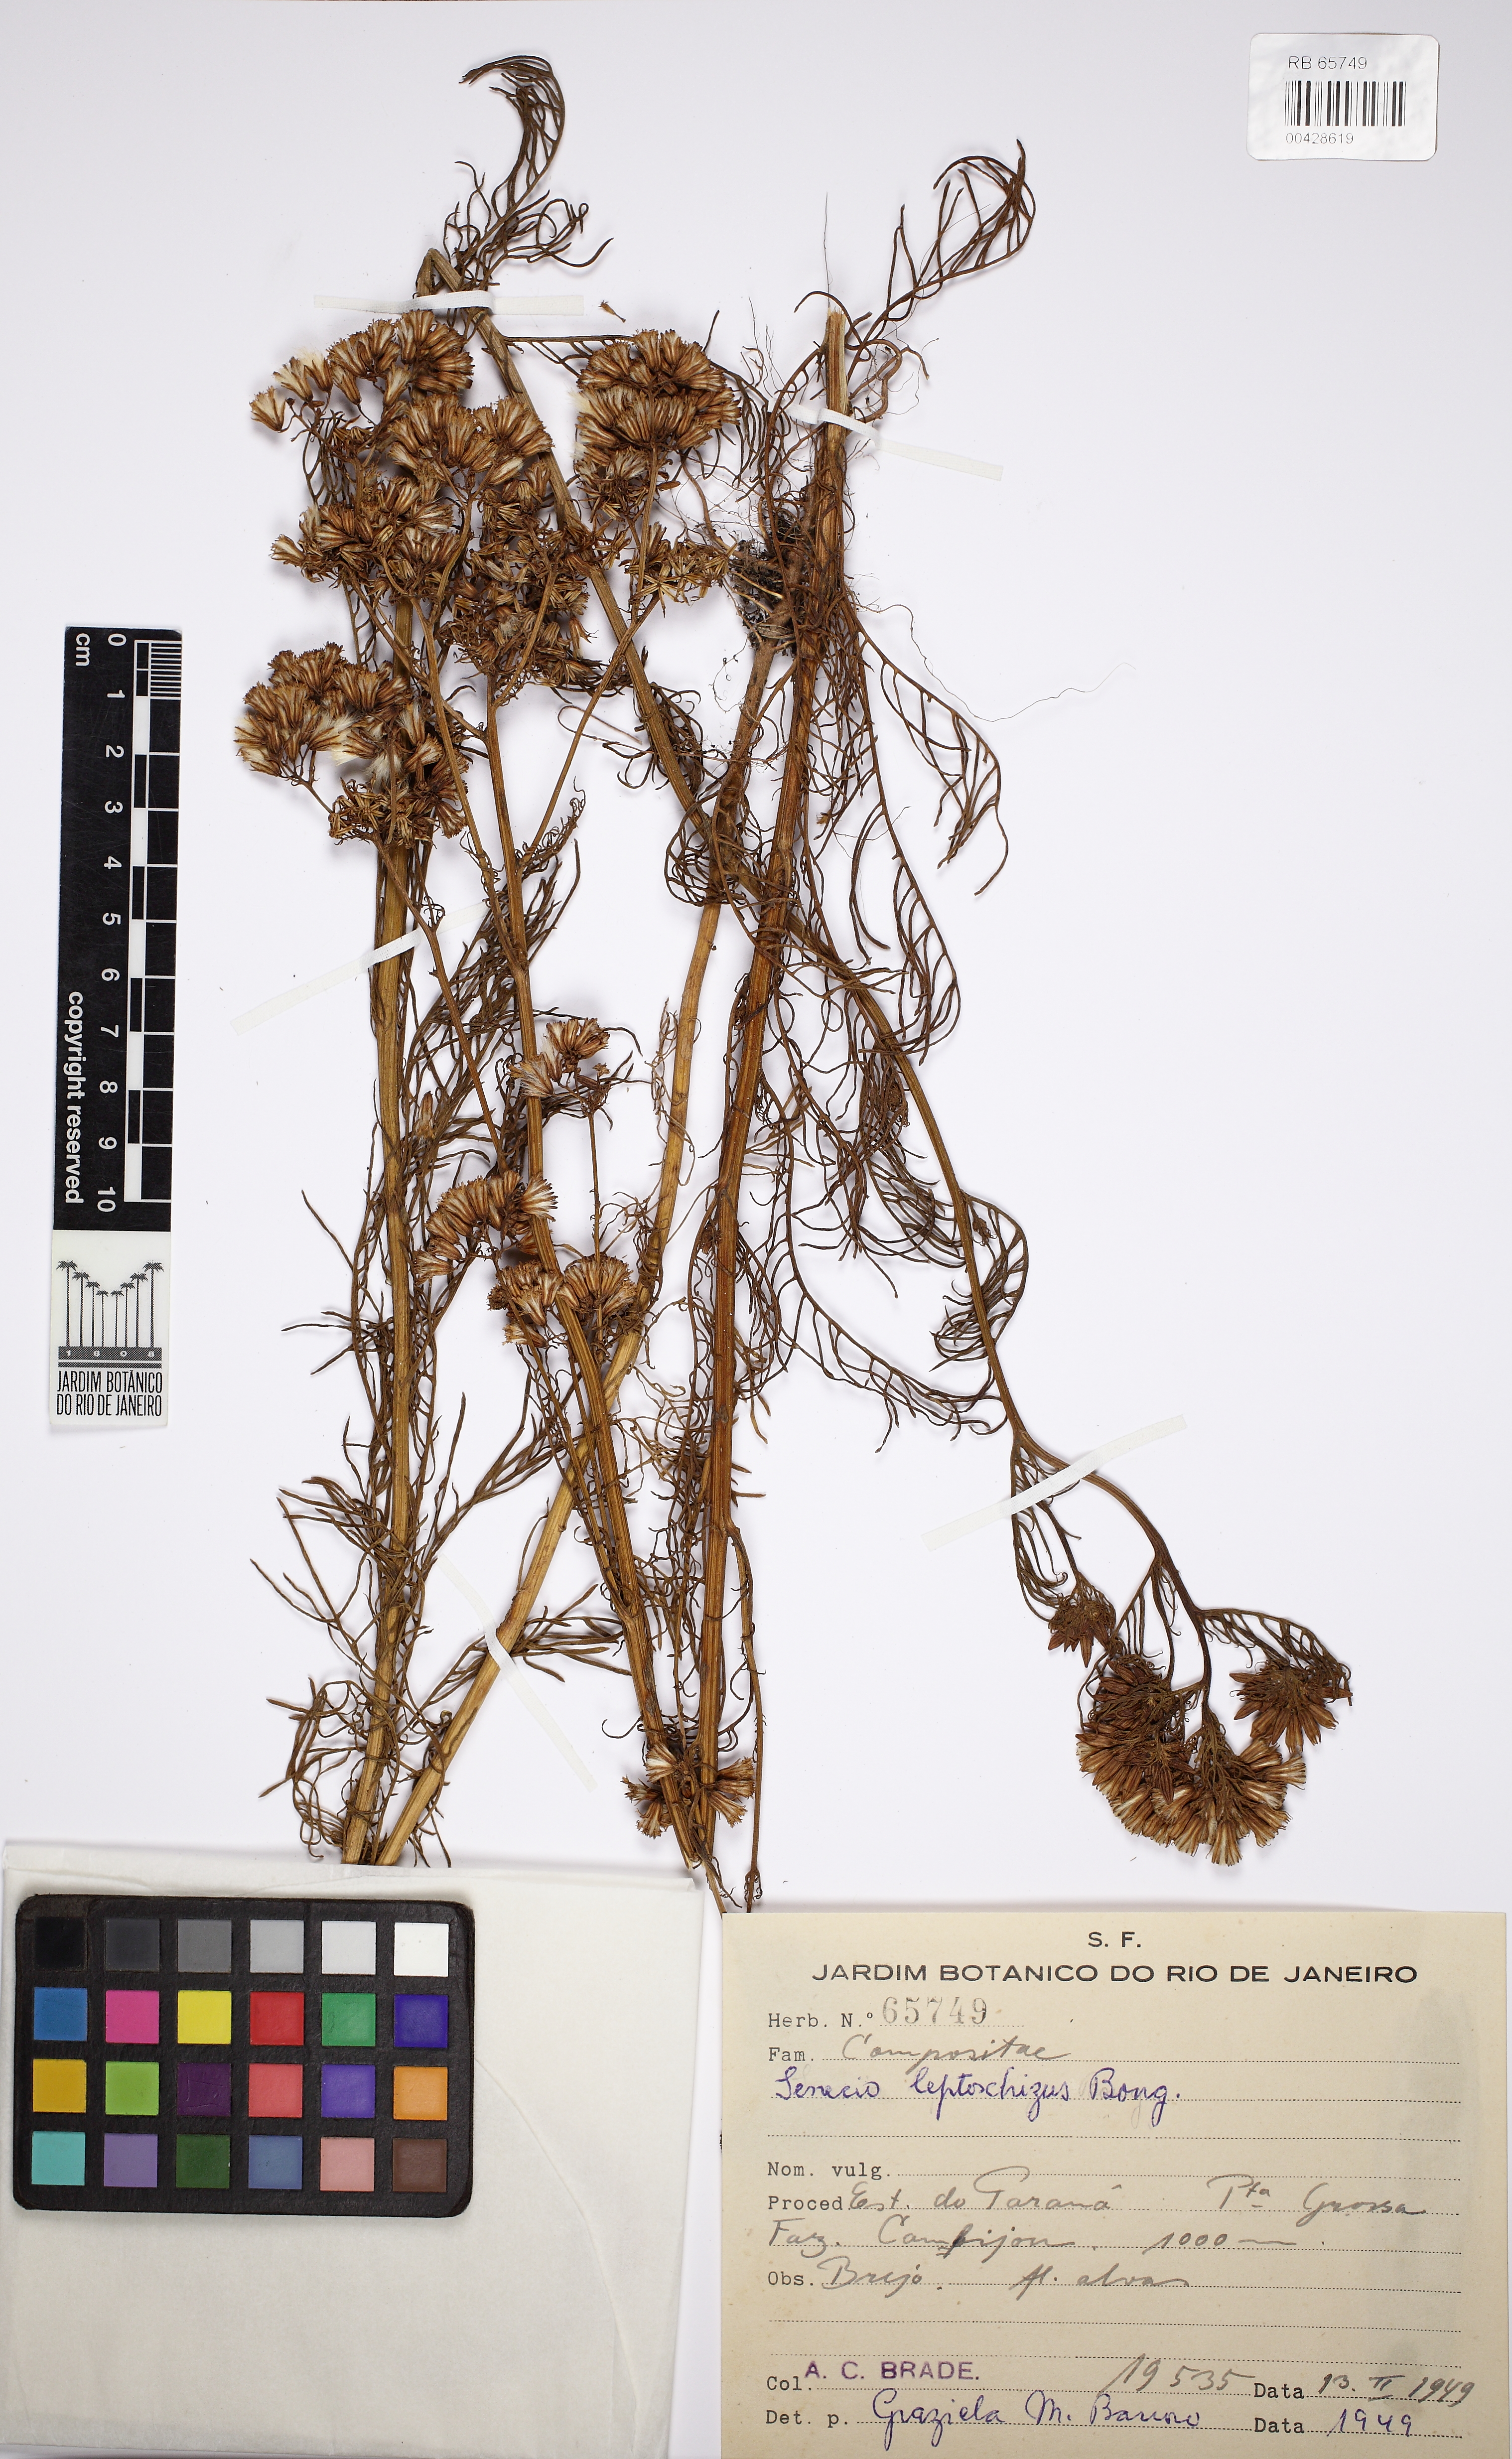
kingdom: Plantae
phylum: Tracheophyta
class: Magnoliopsida
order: Asterales
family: Asteraceae
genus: Senecio
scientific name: Senecio leptoschizus
